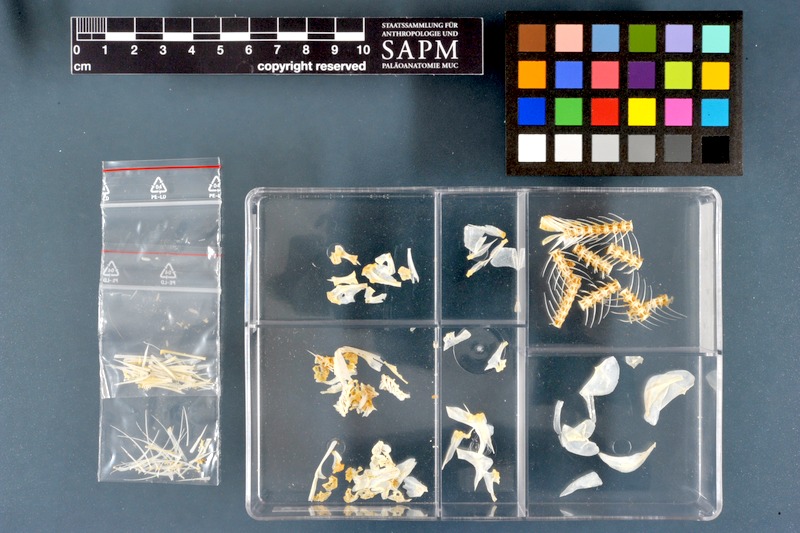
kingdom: Animalia
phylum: Chordata
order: Characiformes
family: Alestidae
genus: Hydrocynus
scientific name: Hydrocynus forskahlii
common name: Elongate tigerfish
